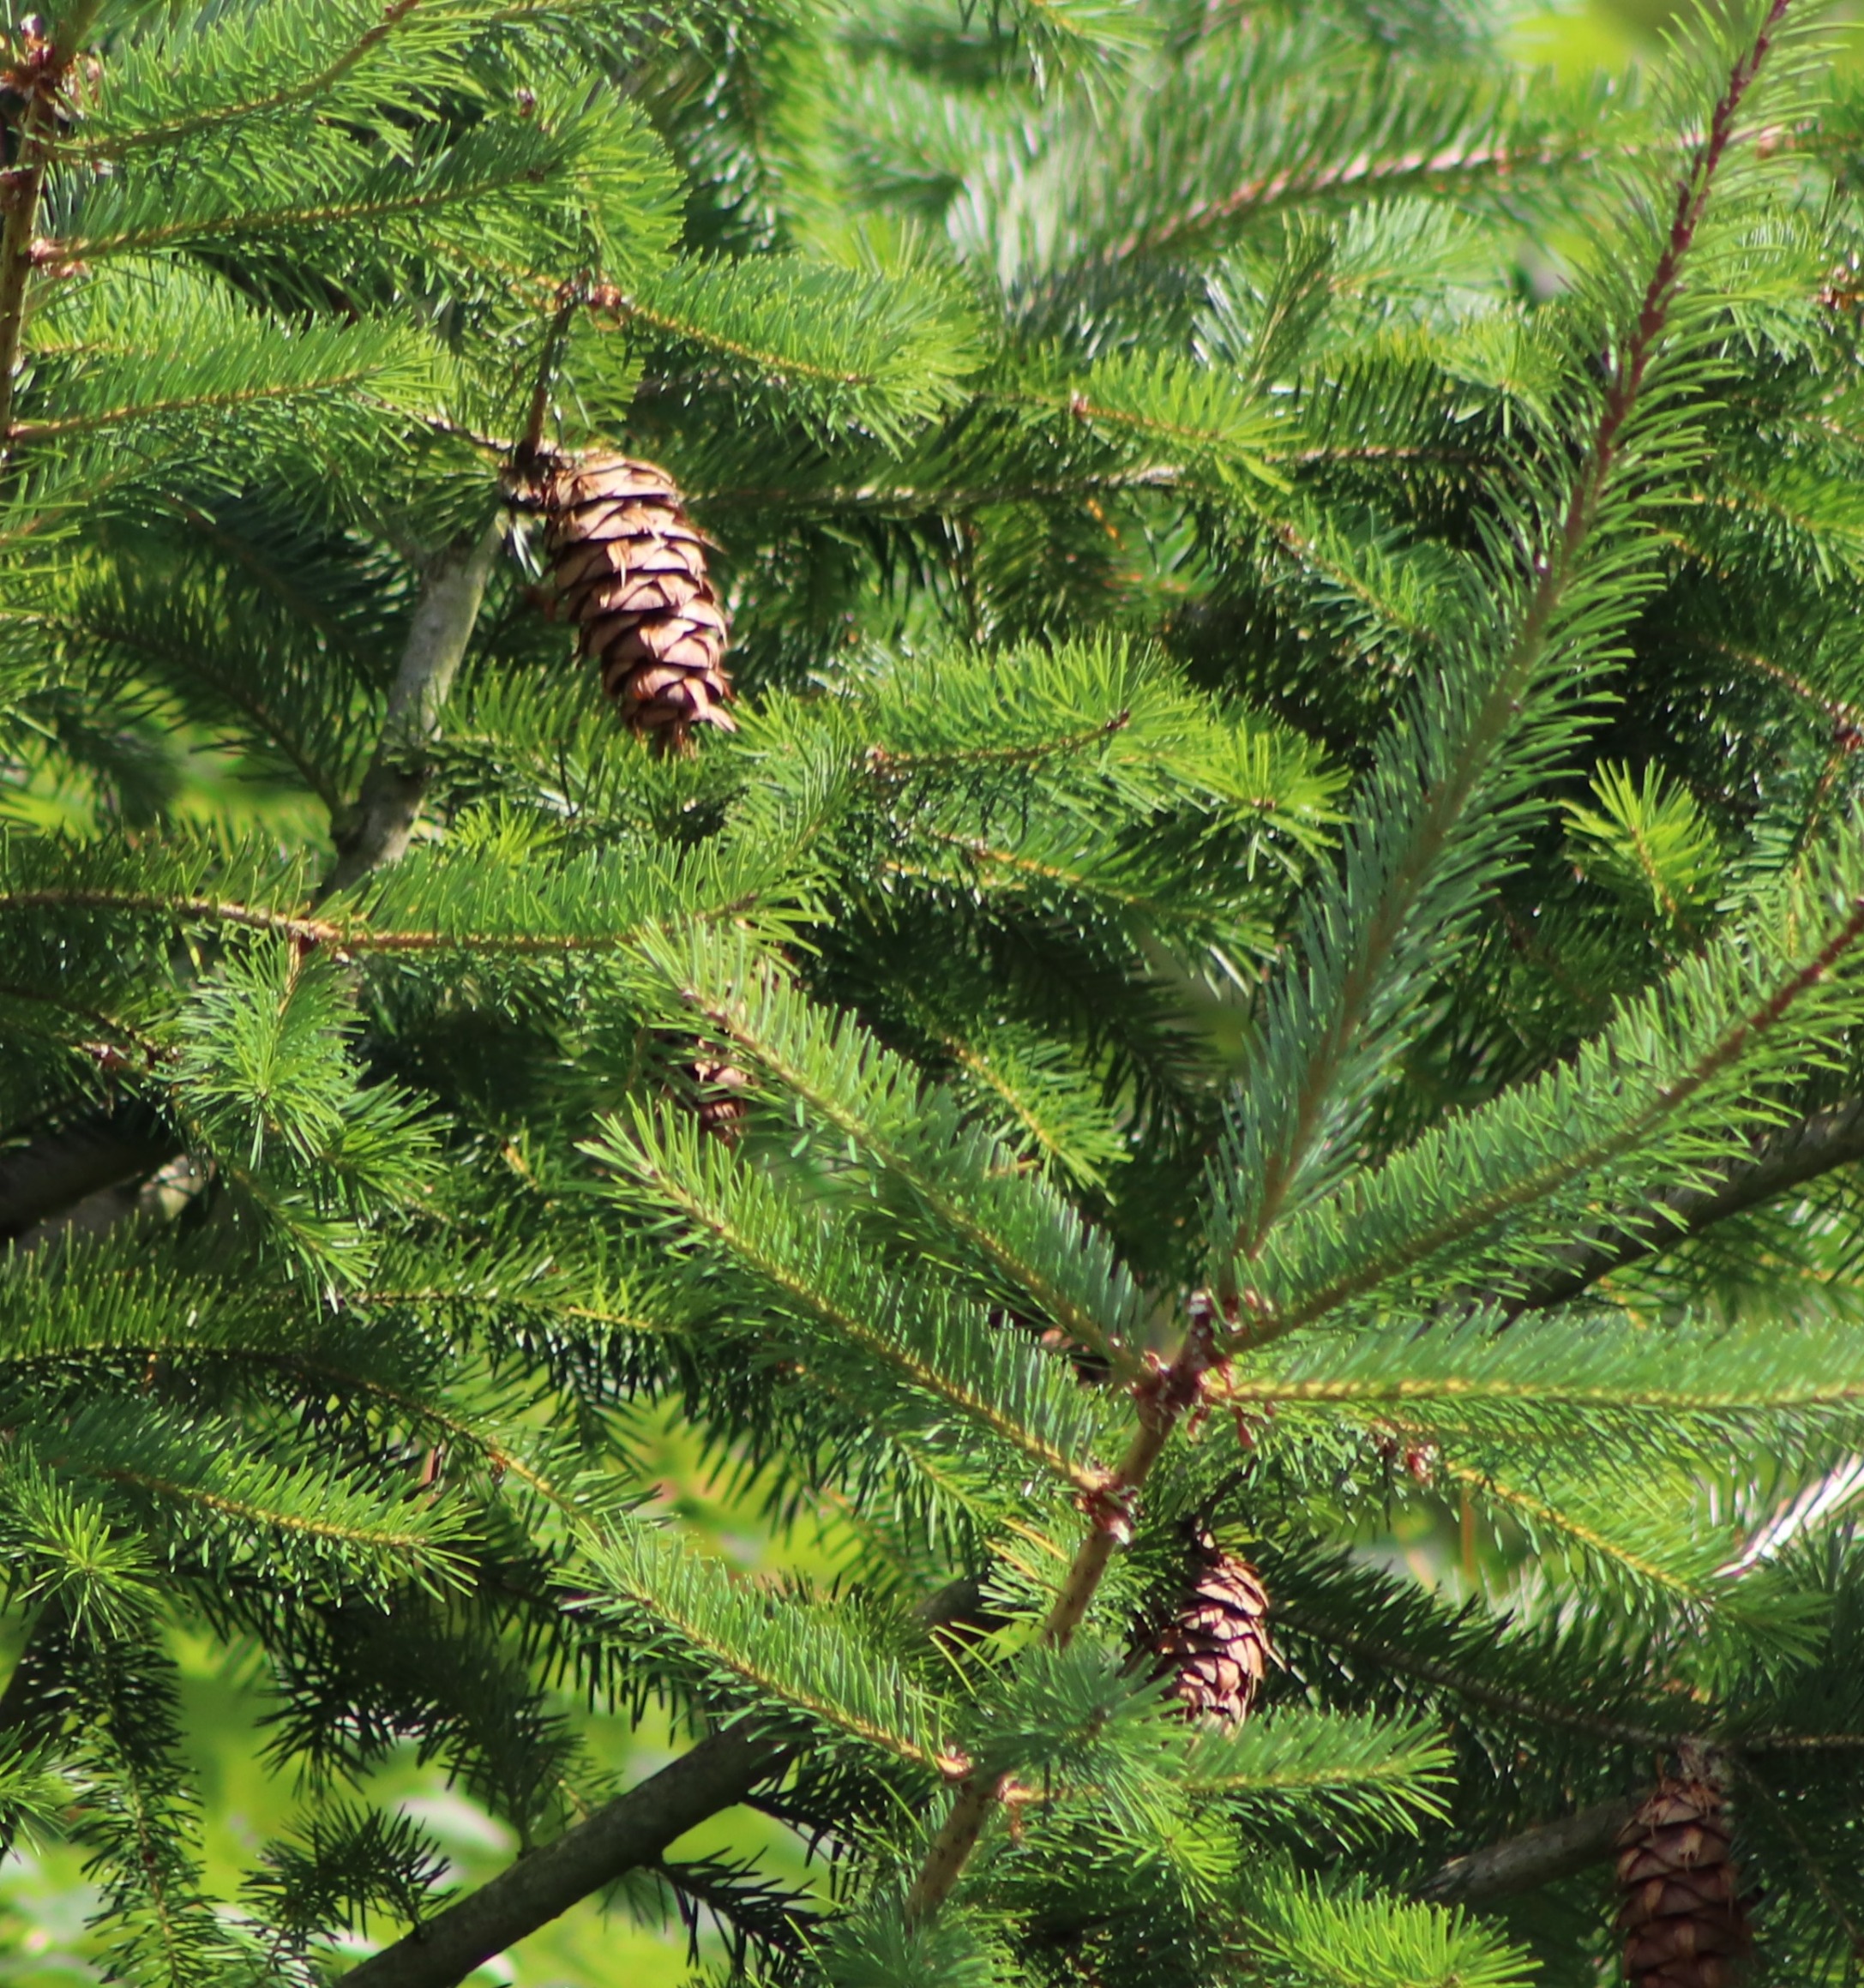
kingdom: Plantae
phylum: Tracheophyta
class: Pinopsida
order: Pinales
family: Pinaceae
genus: Pseudotsuga
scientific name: Pseudotsuga menziesii
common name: Douglasgran
